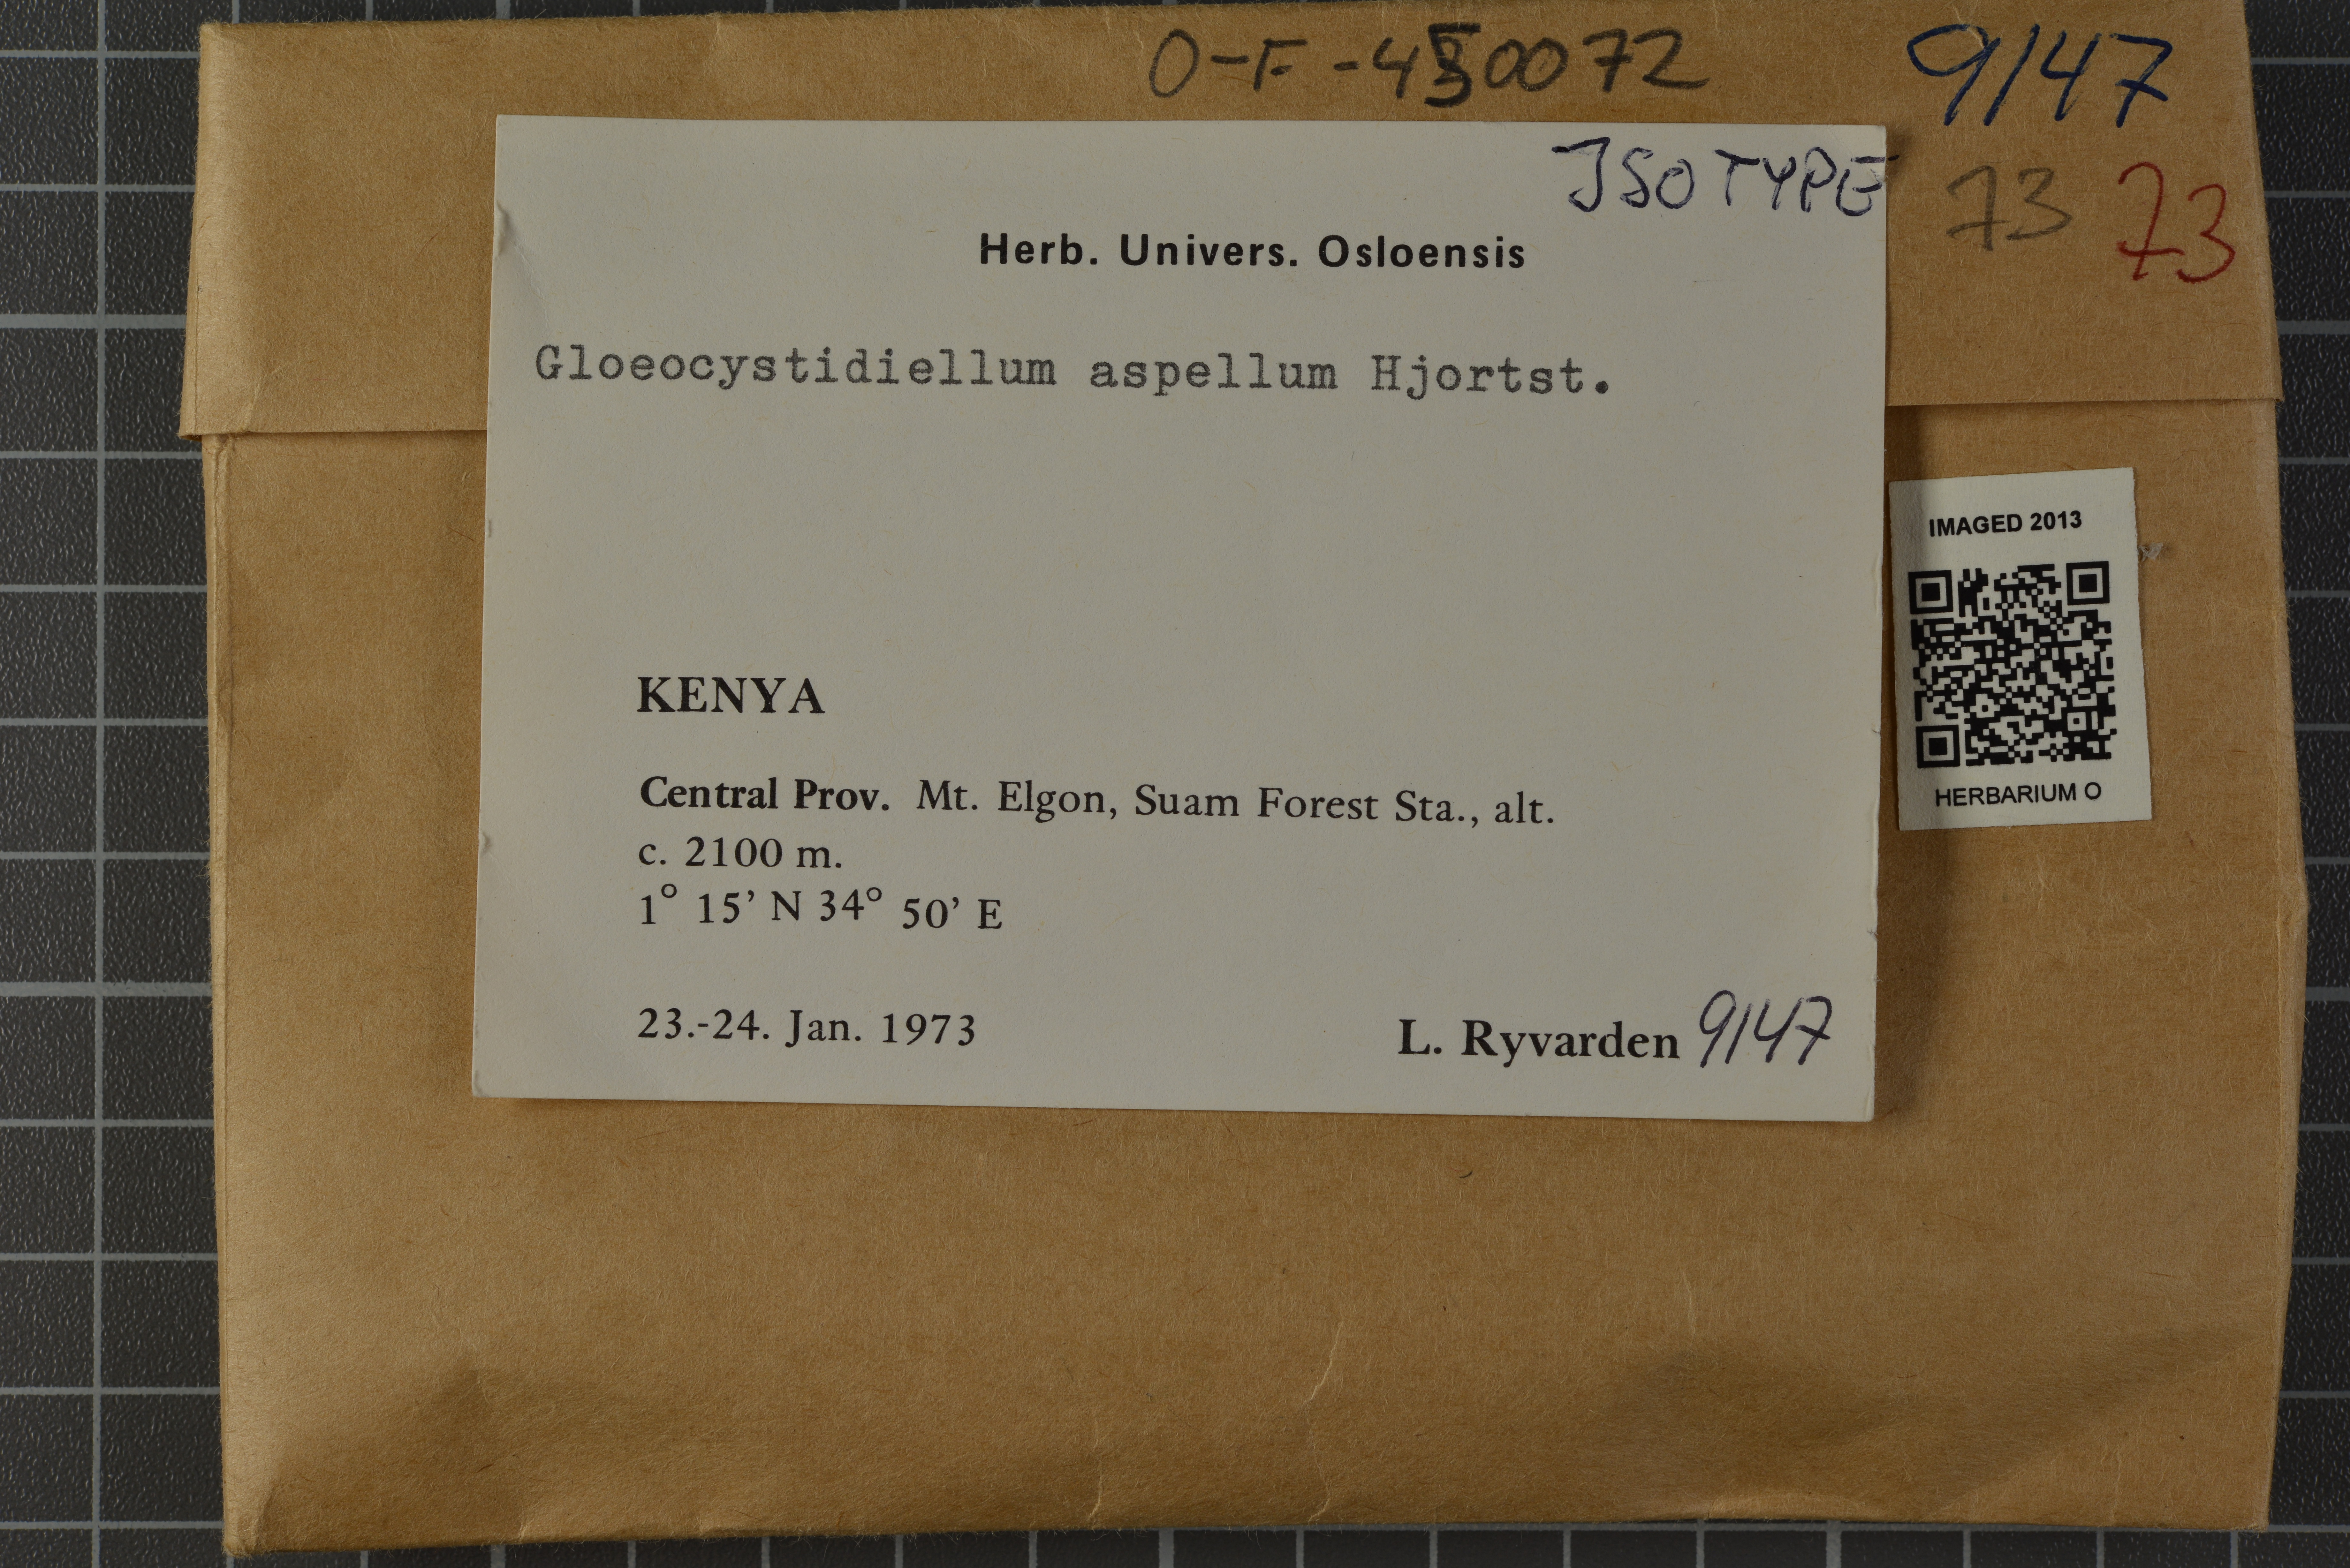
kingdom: Fungi
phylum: Basidiomycota
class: Agaricomycetes
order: Russulales
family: Stereaceae
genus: Gloeocystidiellum
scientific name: Gloeocystidiellum aspellum
